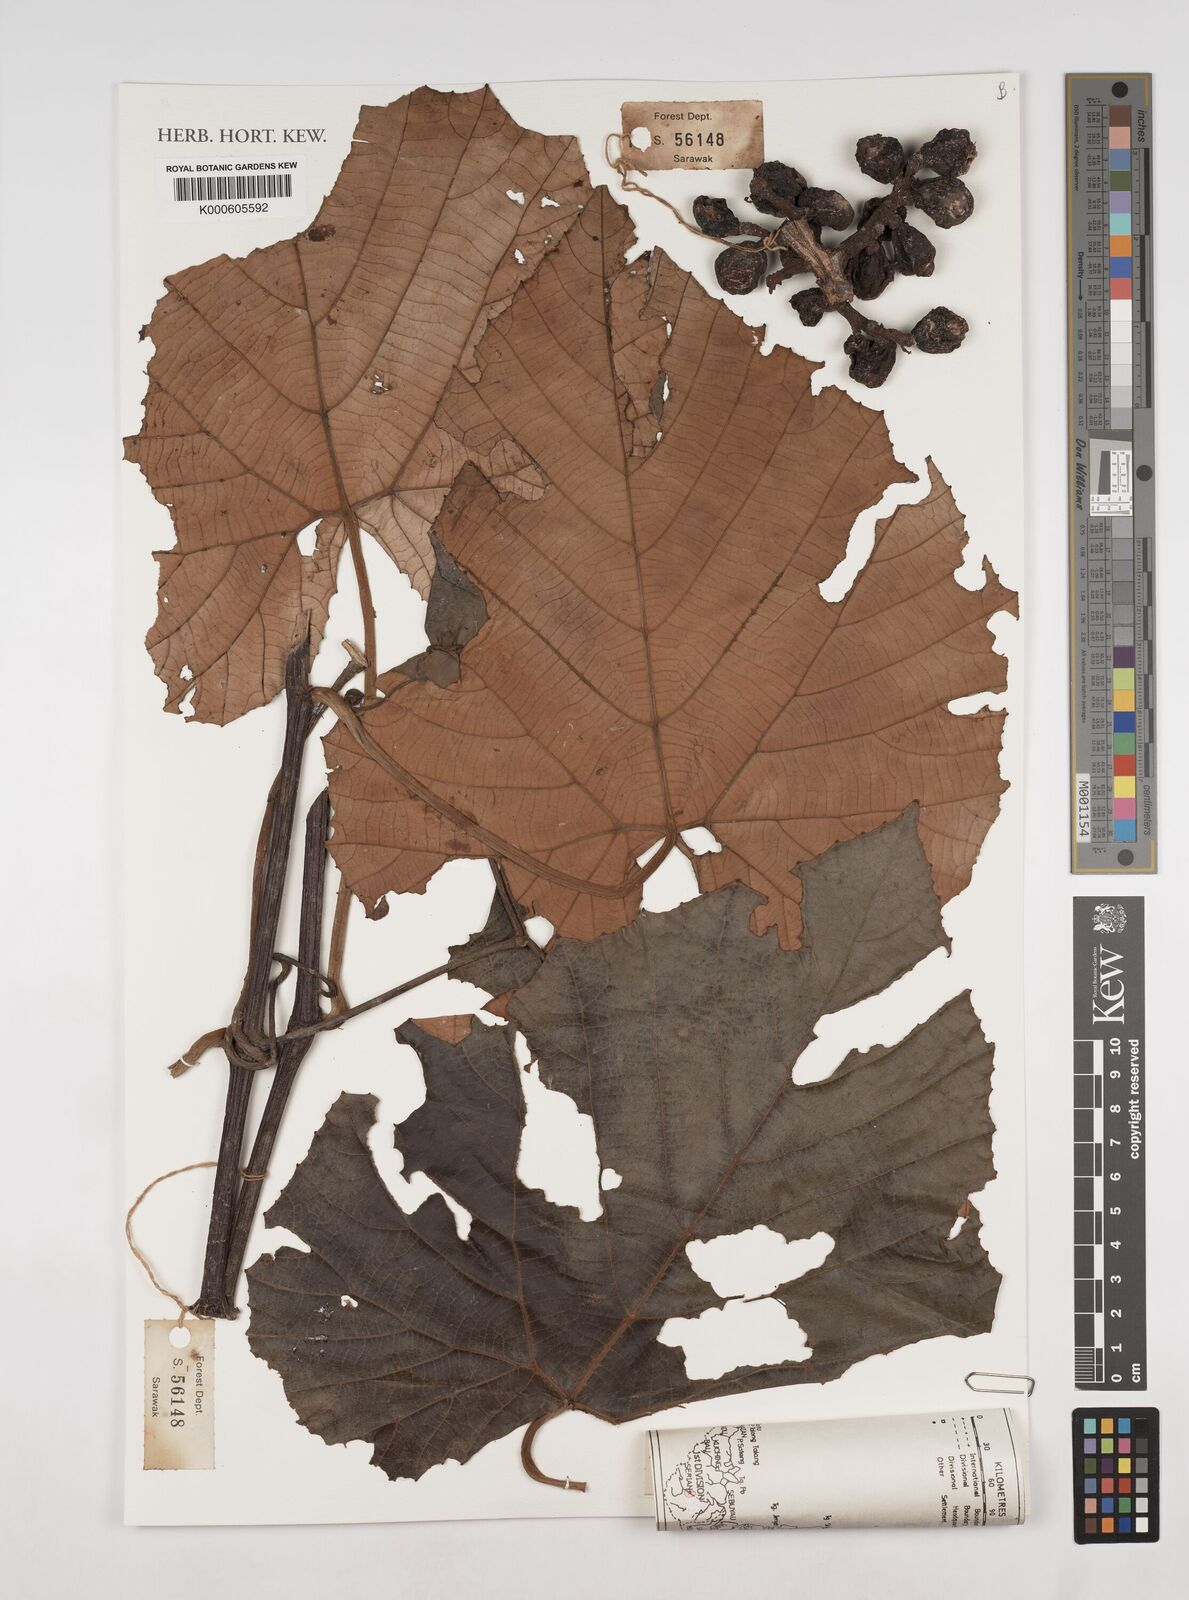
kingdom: Plantae
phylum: Tracheophyta
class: Magnoliopsida
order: Vitales
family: Vitaceae
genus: Ampelocissus
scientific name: Ampelocissus imperialis
